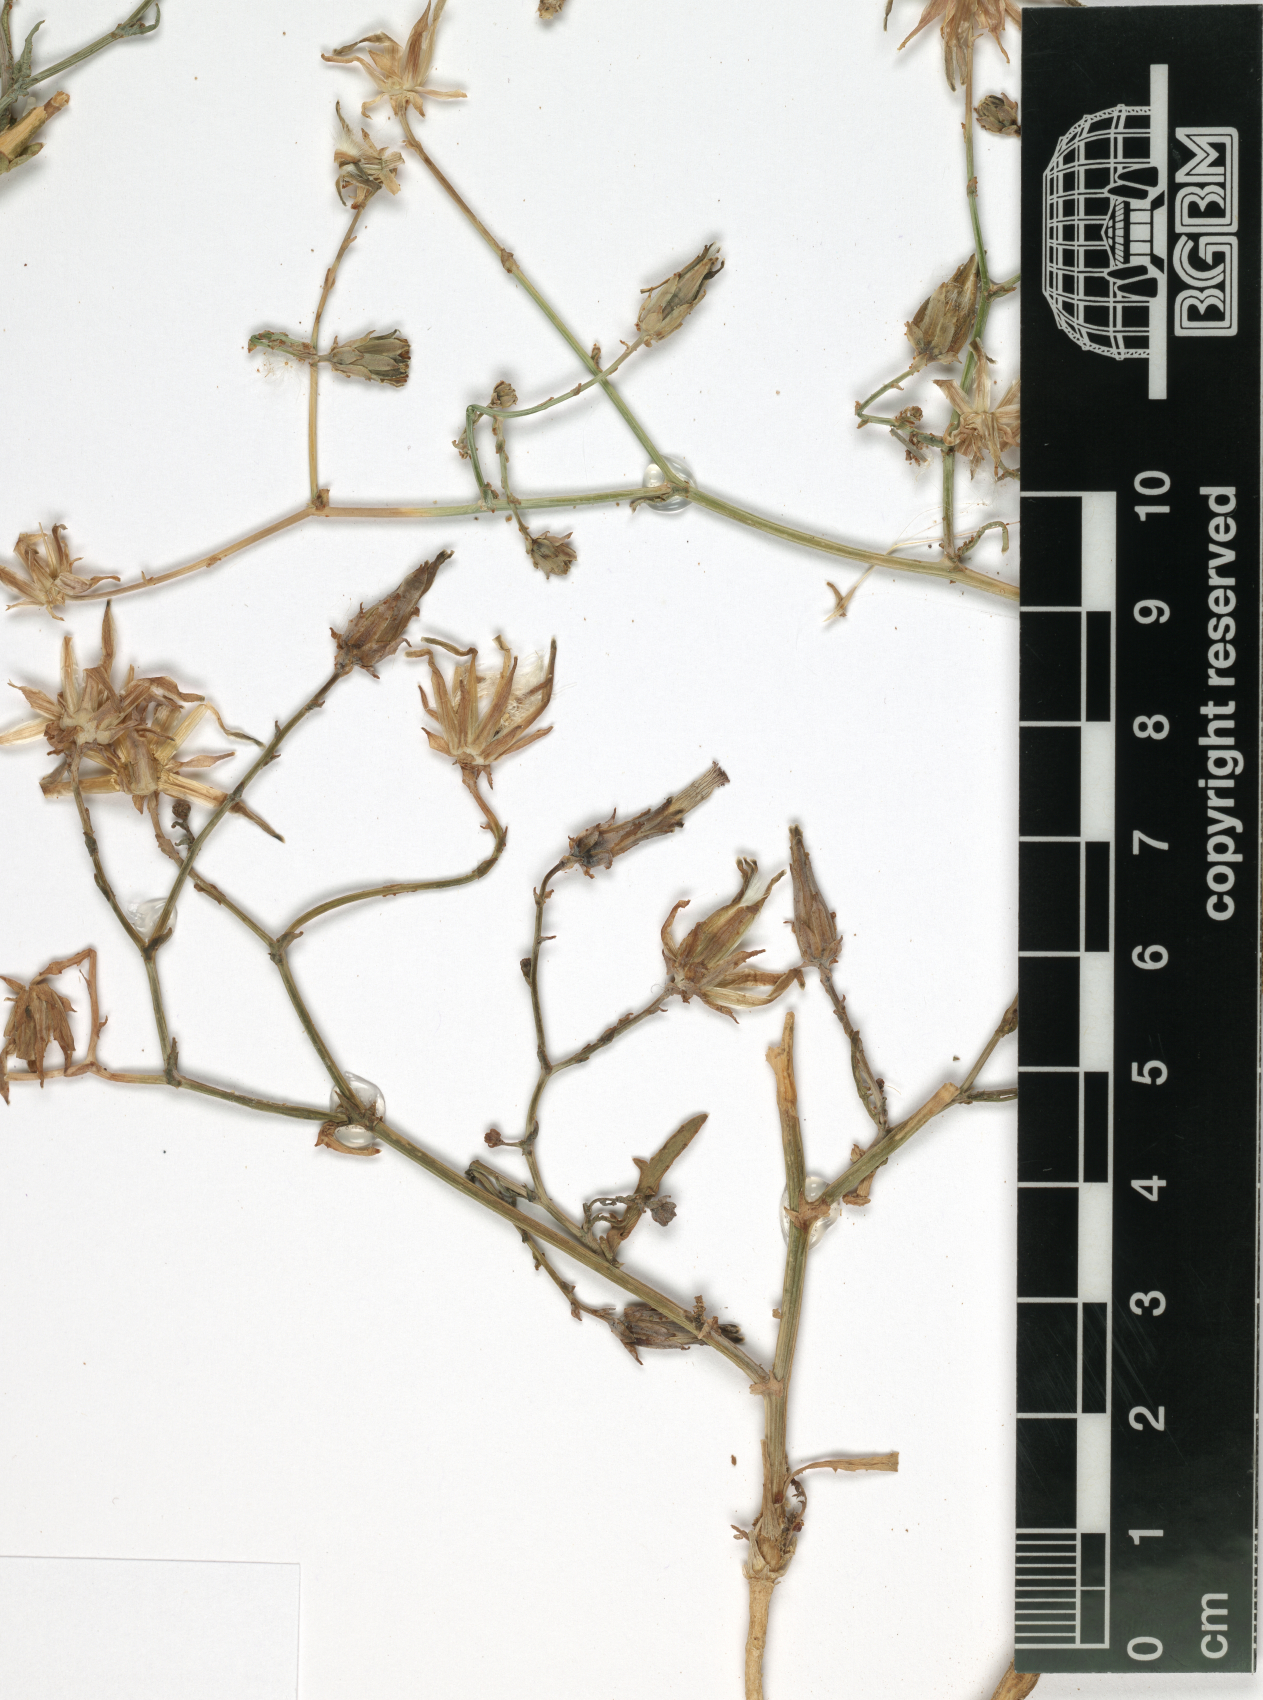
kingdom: Plantae
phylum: Tracheophyta
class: Magnoliopsida
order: Asterales
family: Asteraceae
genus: Launaea
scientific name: Launaea mucronata
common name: Mucronate launea
